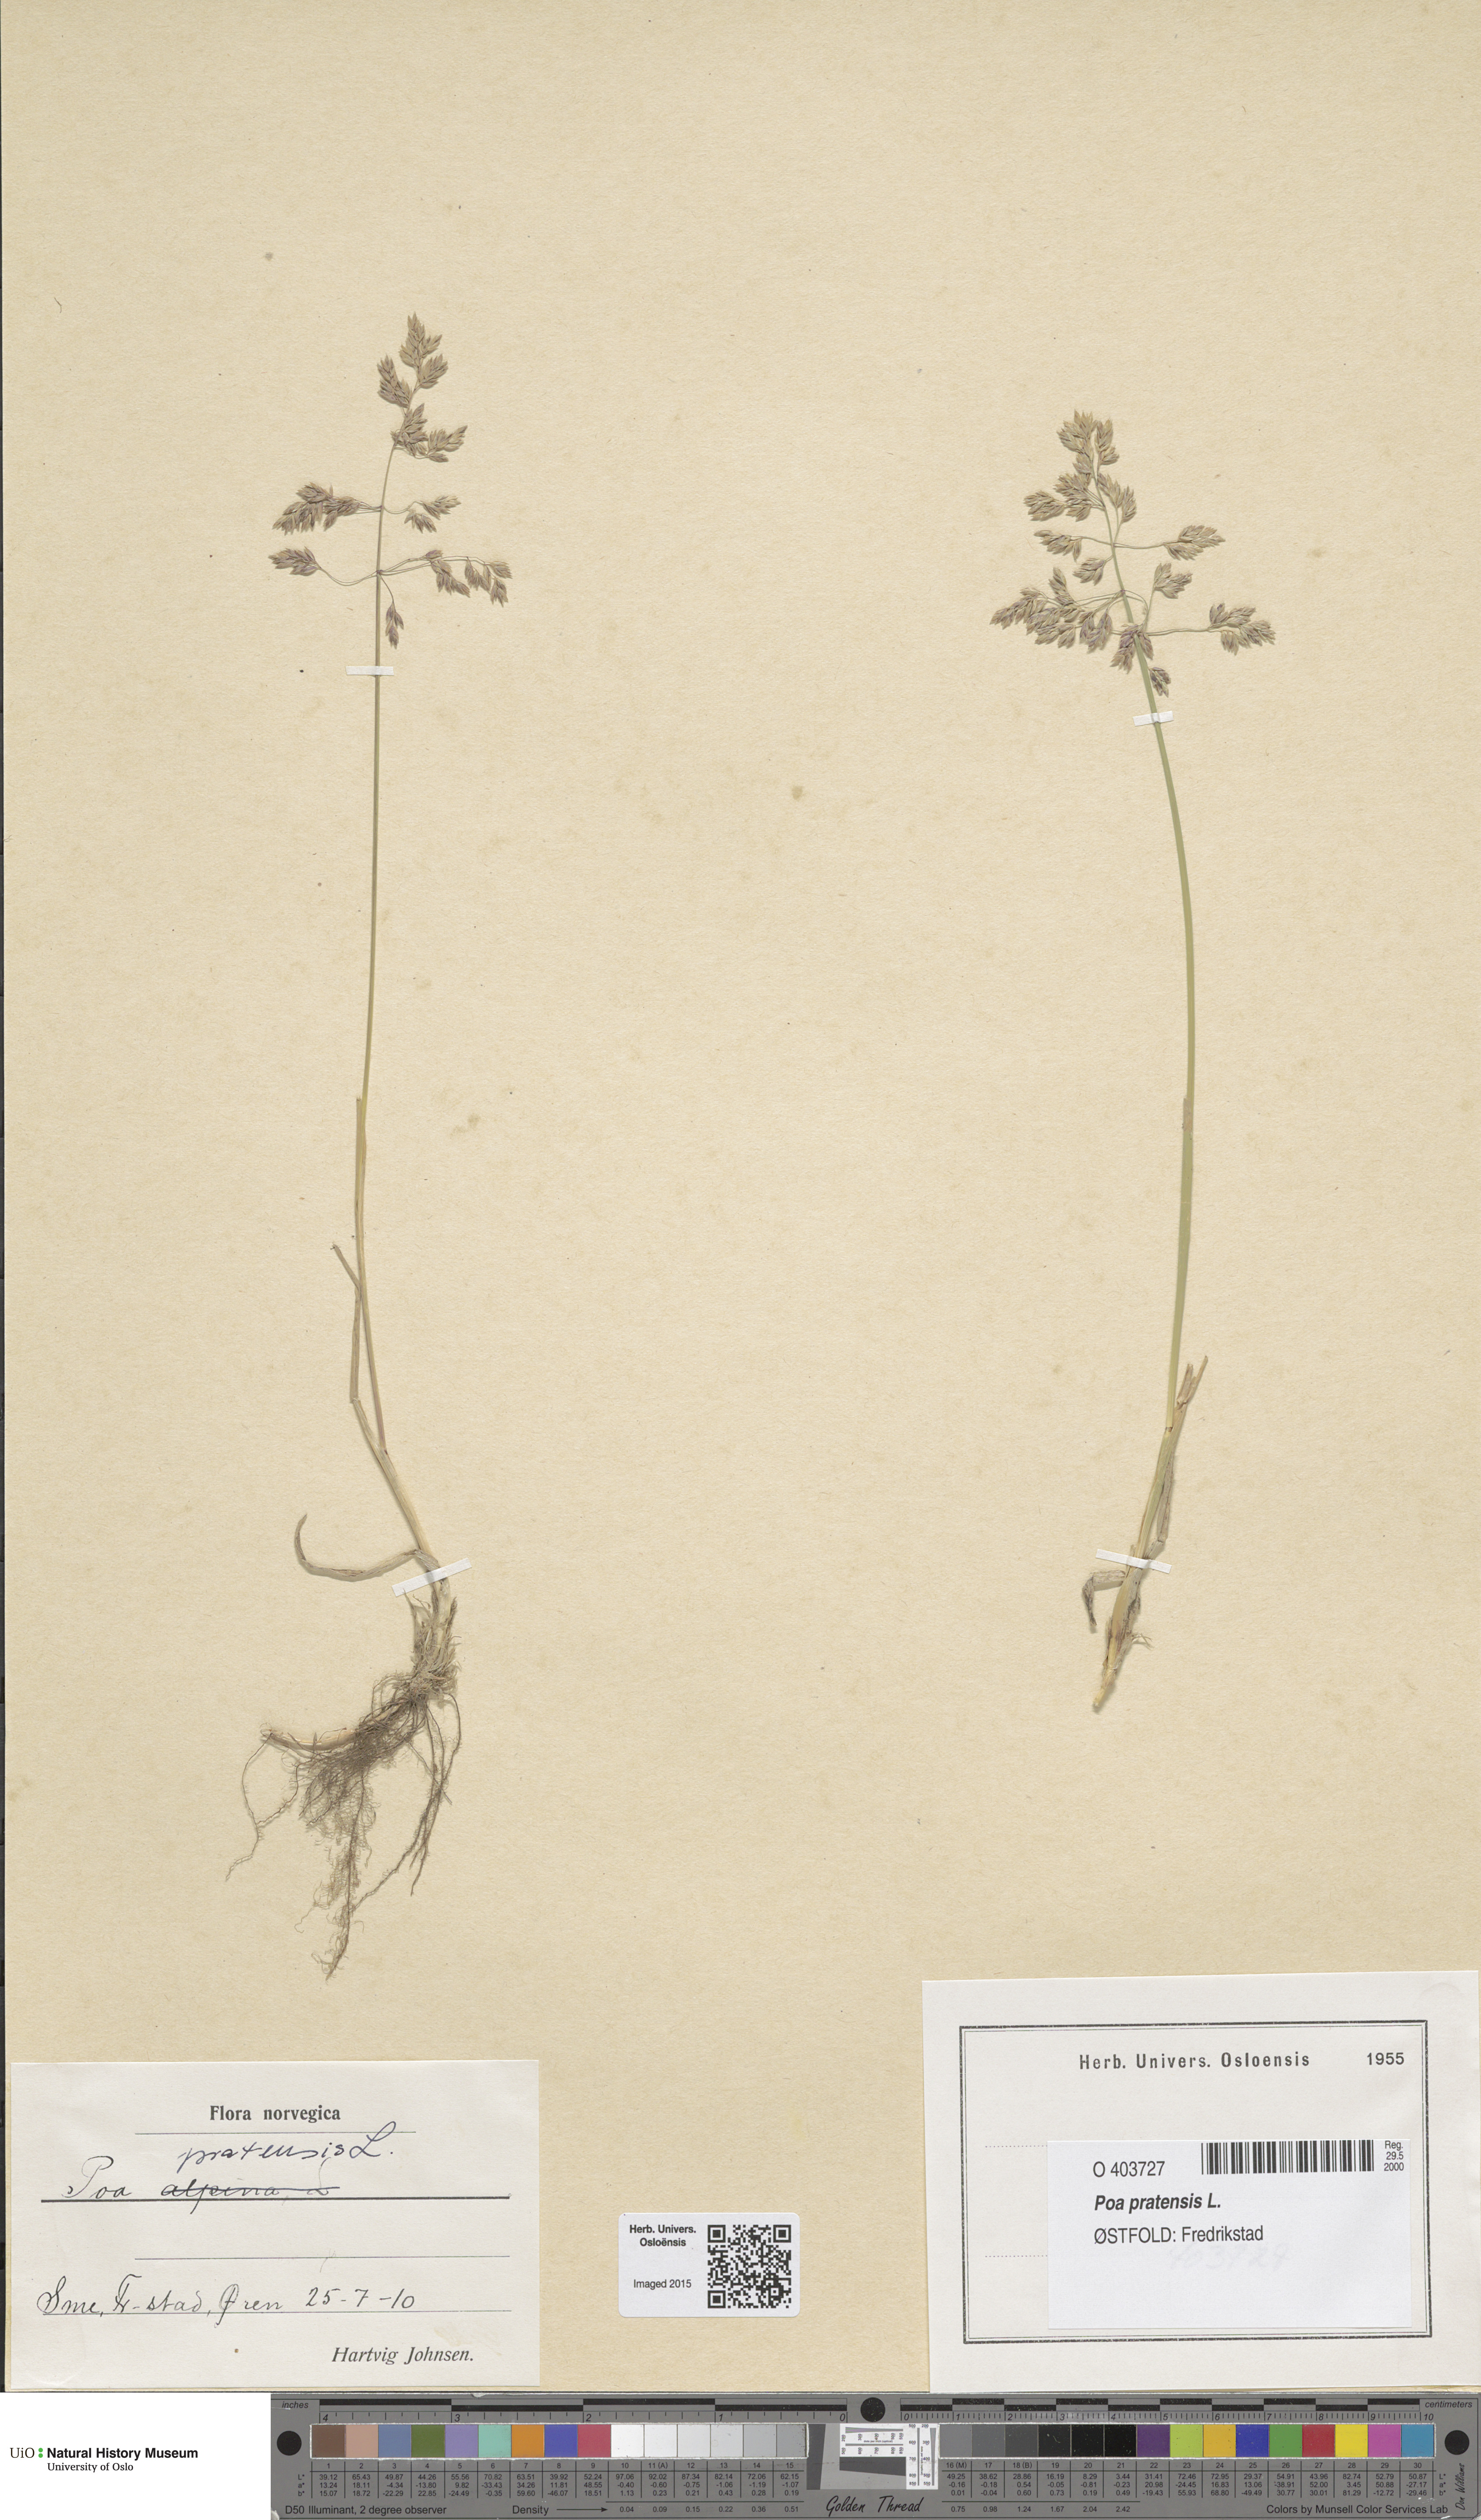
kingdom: Plantae
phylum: Tracheophyta
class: Liliopsida
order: Poales
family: Poaceae
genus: Poa
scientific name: Poa pratensis
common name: Kentucky bluegrass
